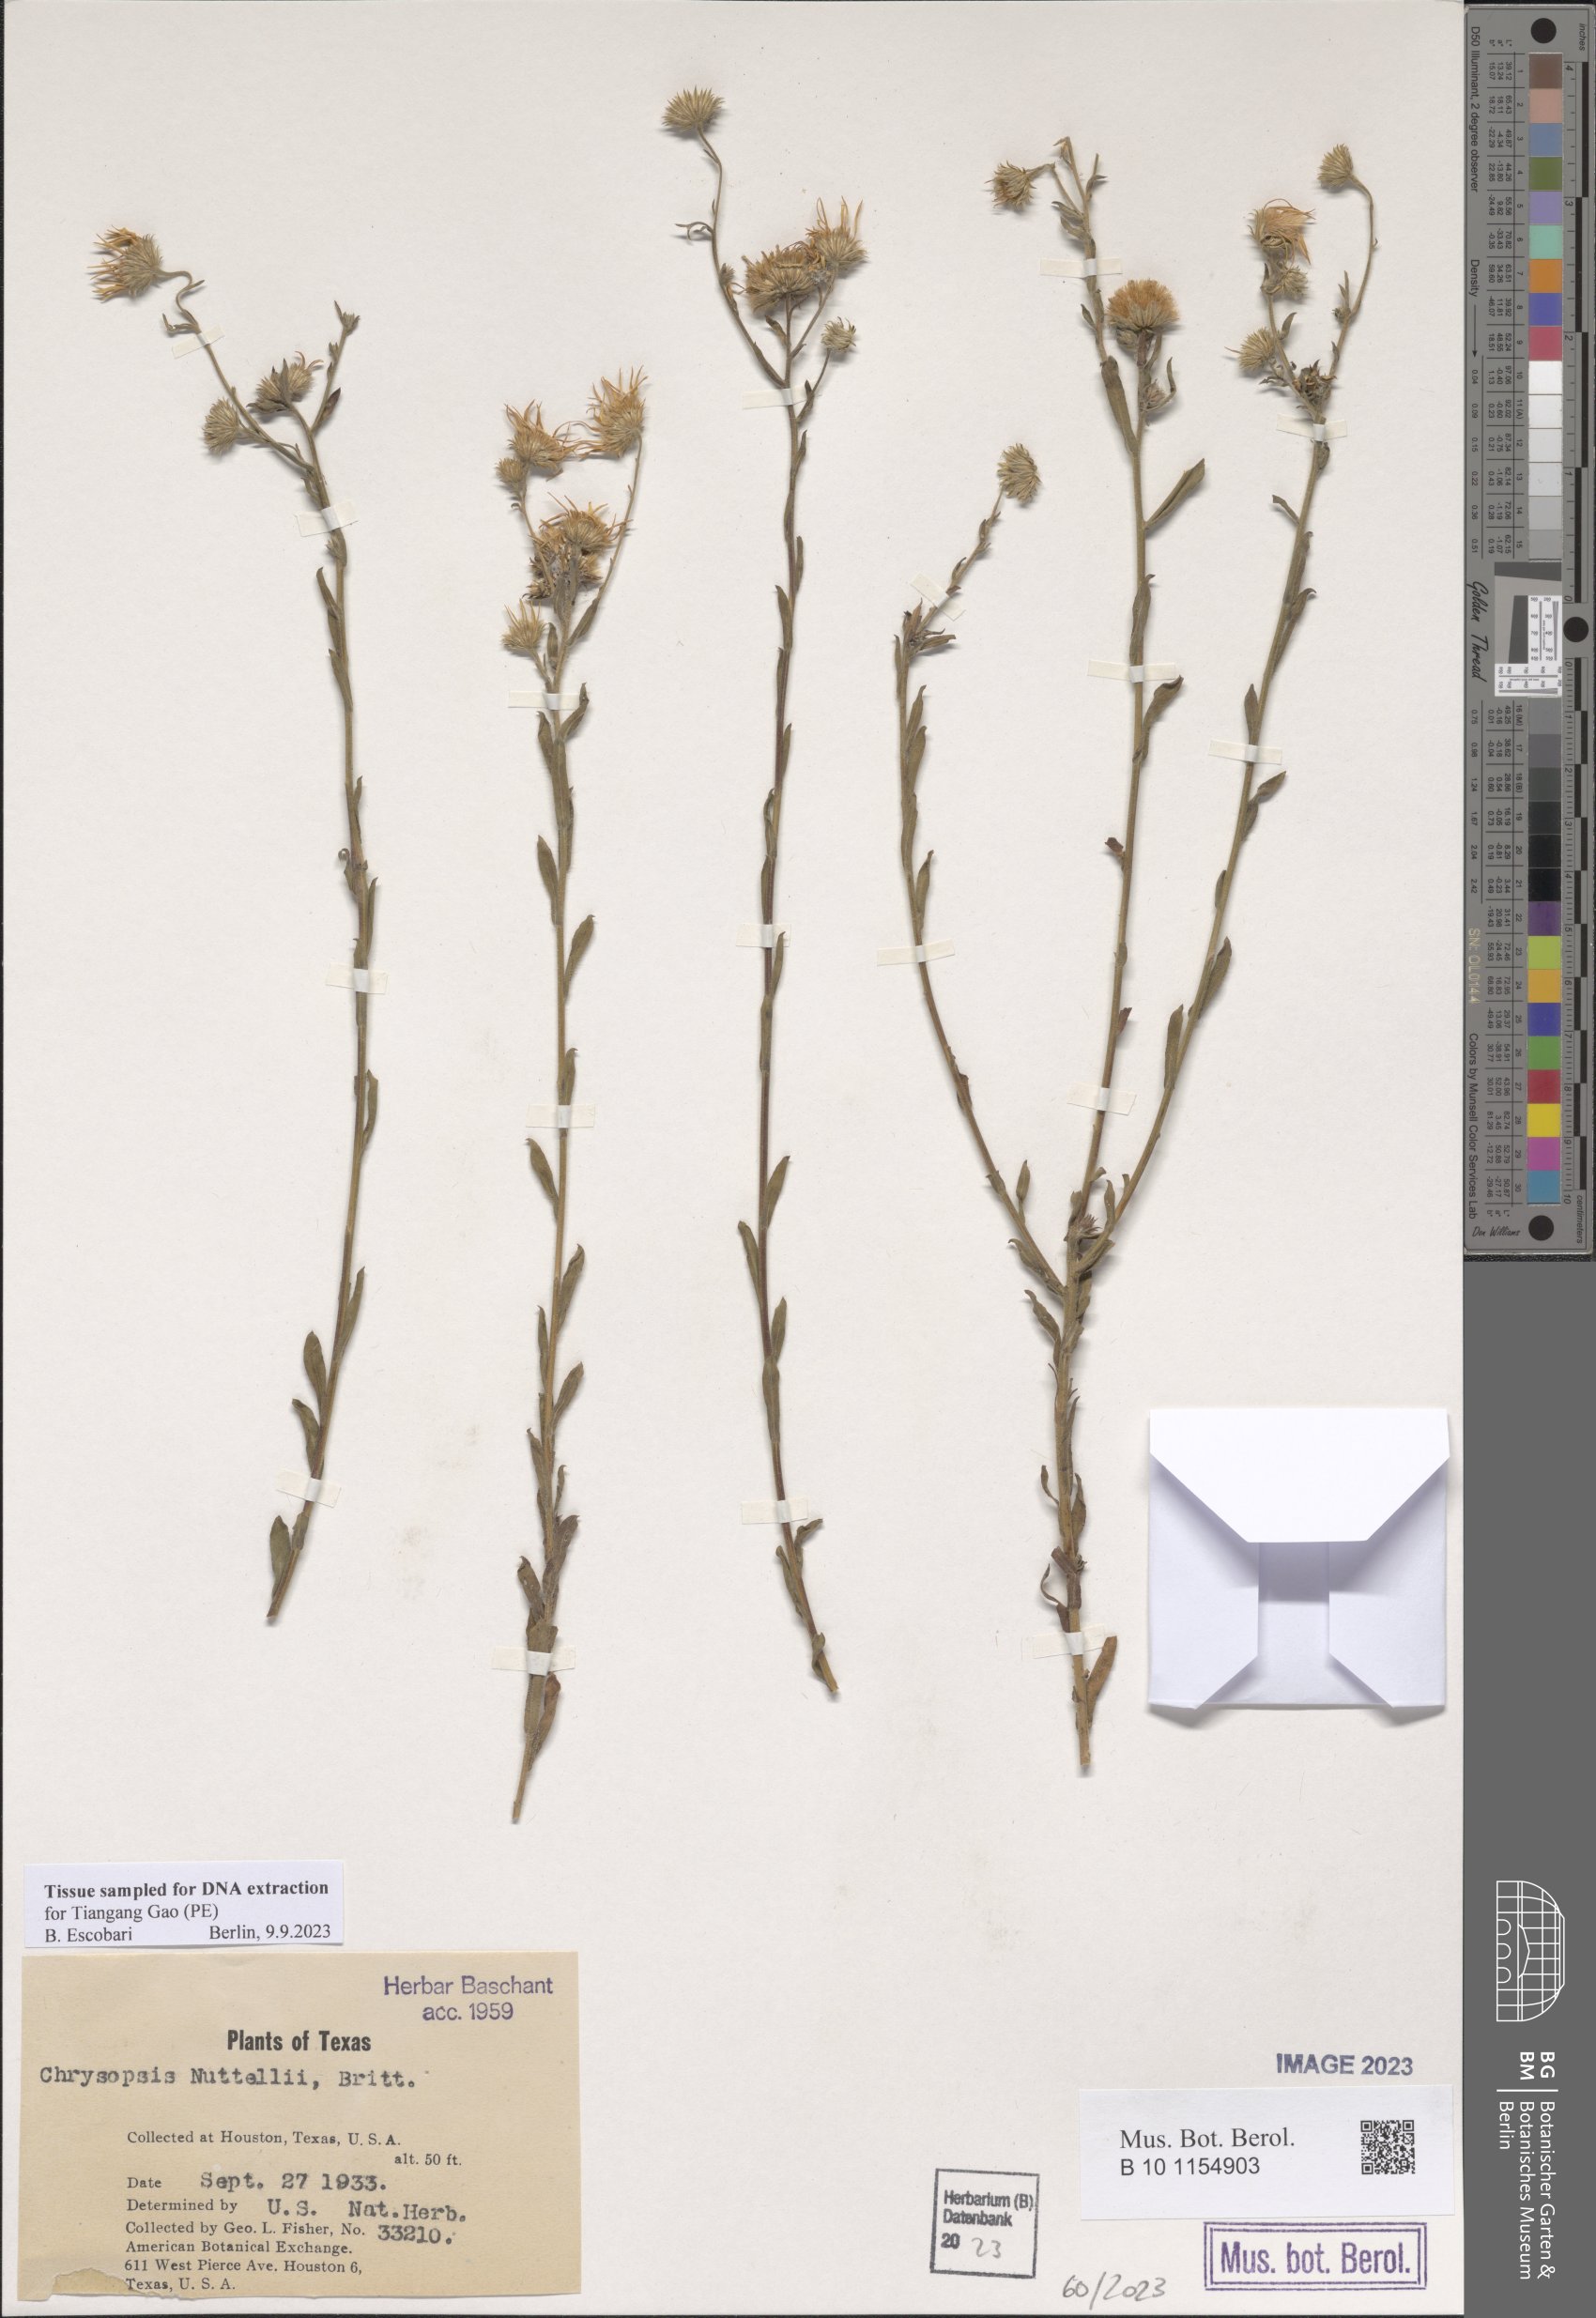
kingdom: Plantae
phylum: Tracheophyta
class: Magnoliopsida
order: Asterales
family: Asteraceae
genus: Bradburia
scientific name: Bradburia pilosa
